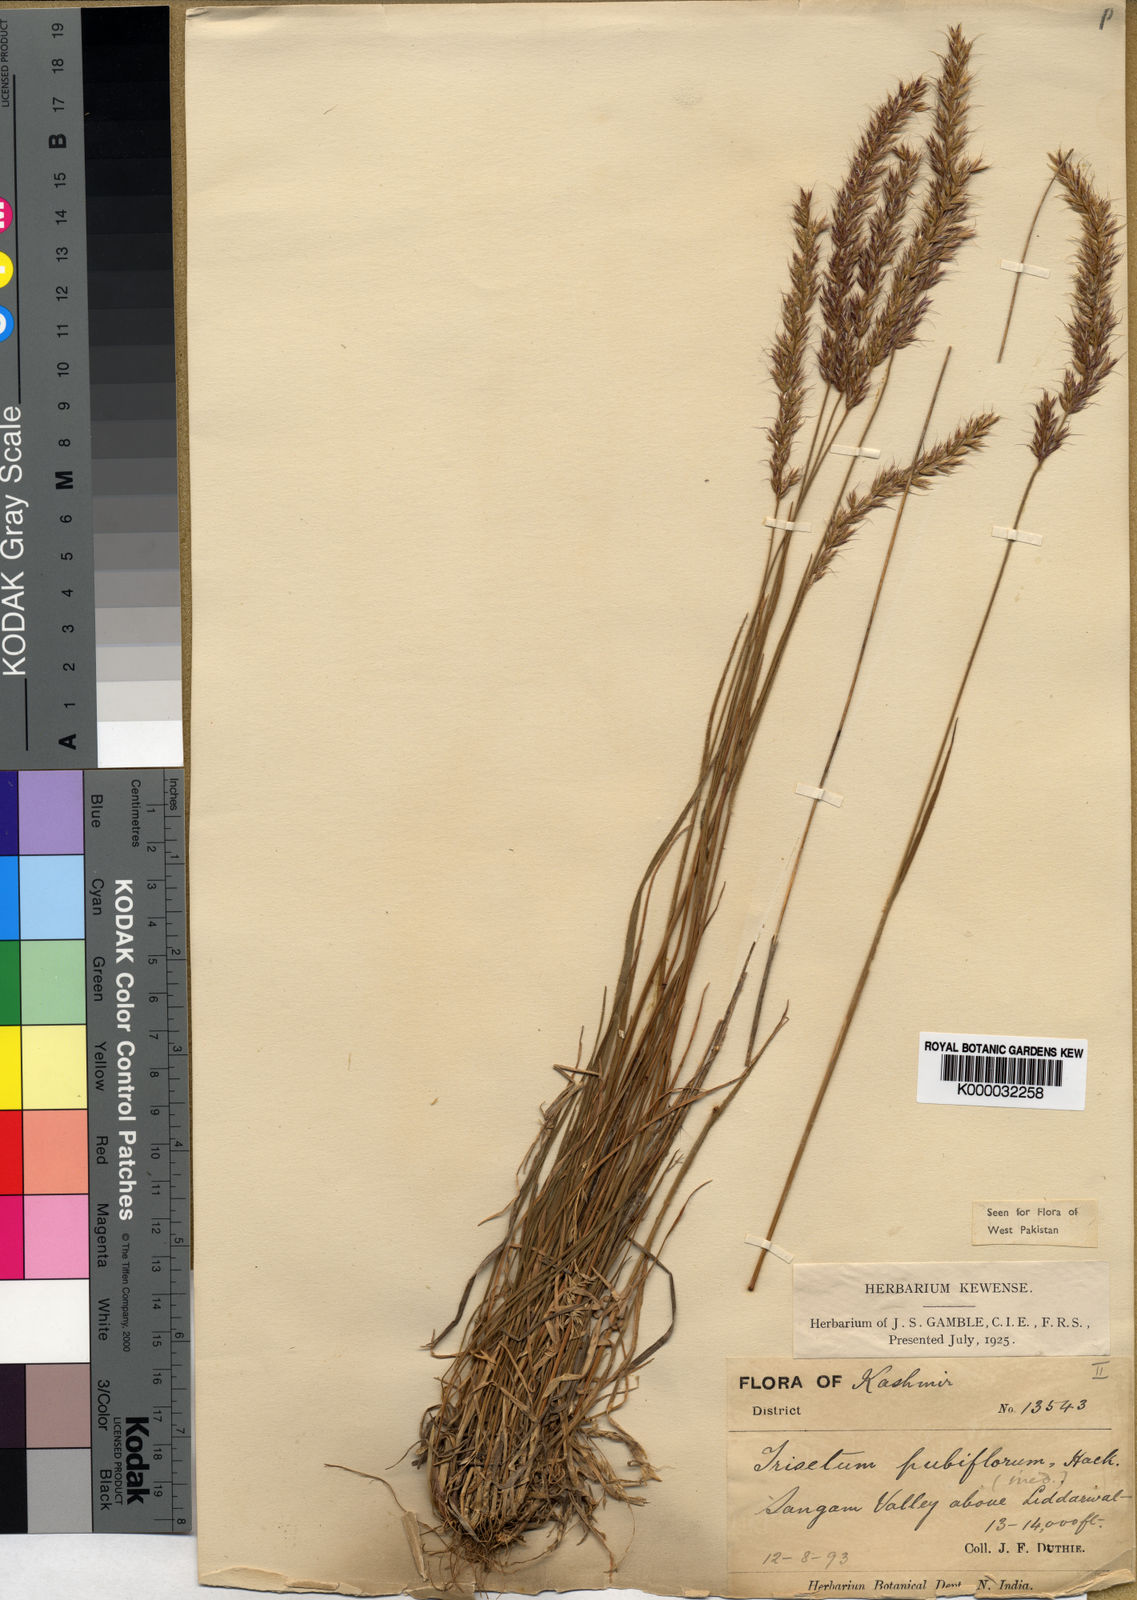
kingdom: Plantae
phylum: Tracheophyta
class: Liliopsida
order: Poales
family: Poaceae
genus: Koeleria
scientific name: Koeleria spicata
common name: Mountain trisetum
